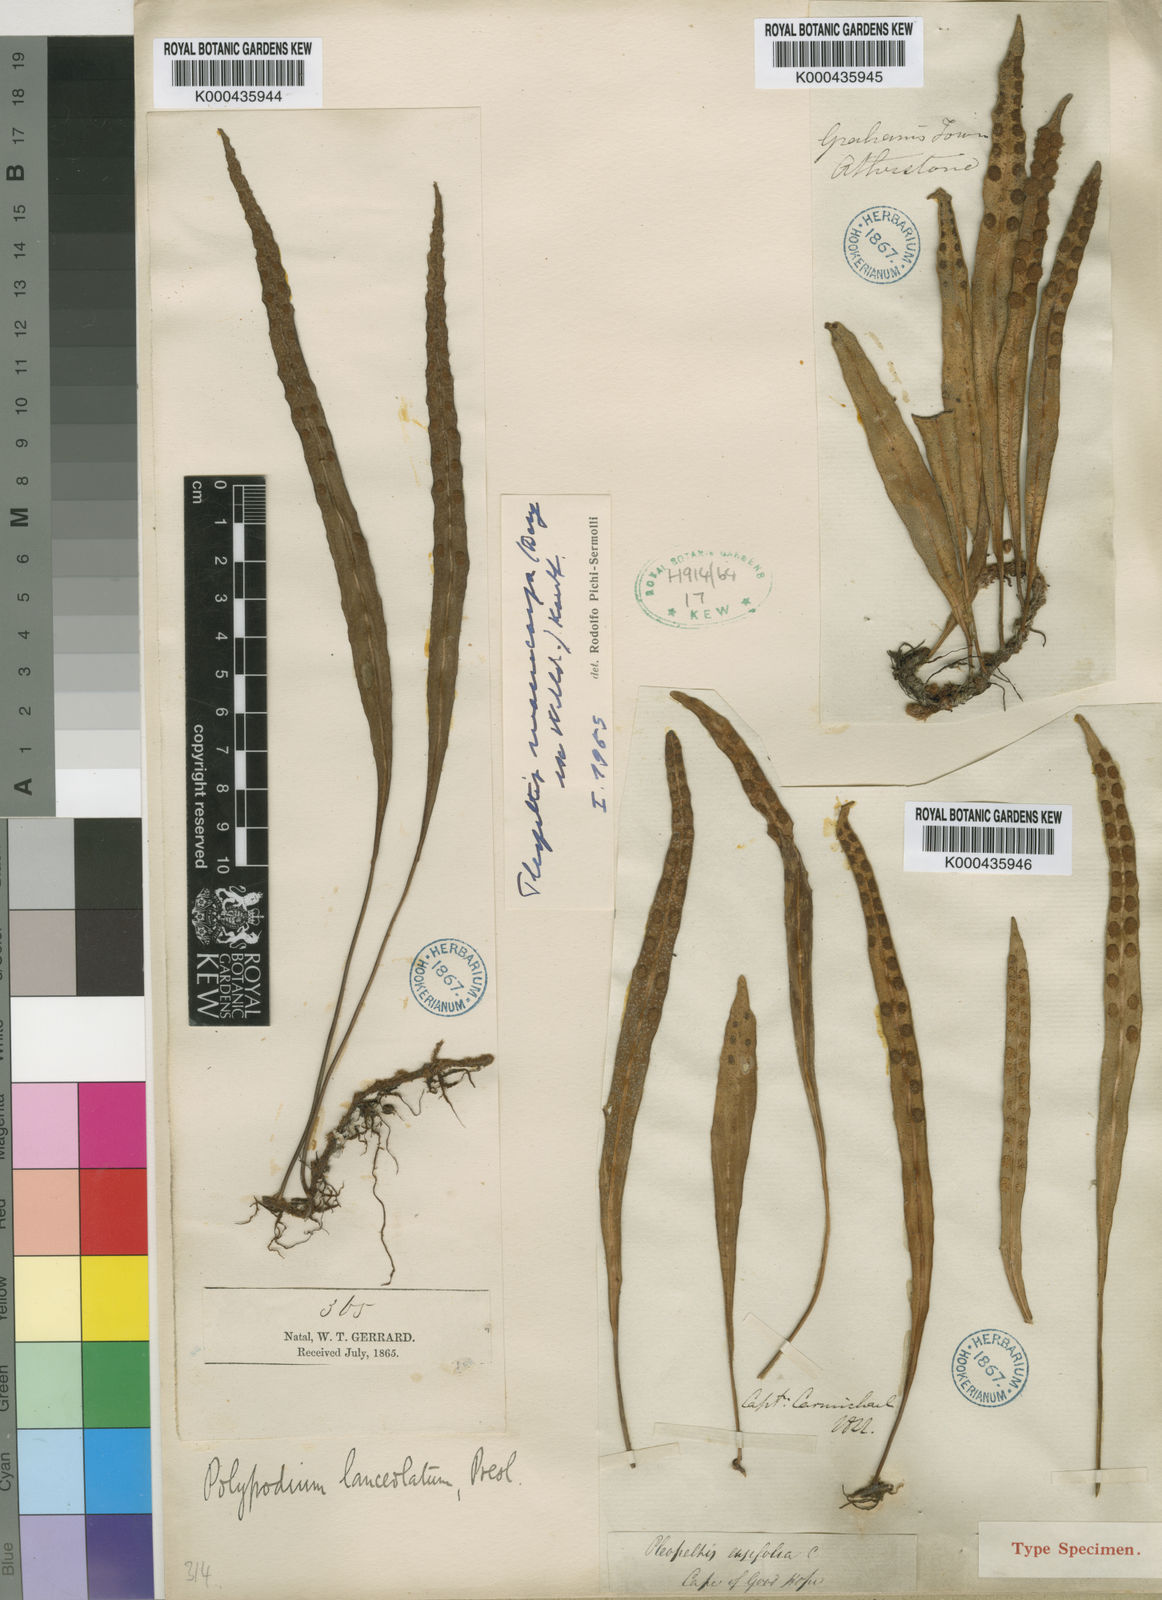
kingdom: Plantae
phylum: Tracheophyta
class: Polypodiopsida
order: Polypodiales
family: Polypodiaceae
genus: Pleopeltis
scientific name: Pleopeltis macrocarpa
